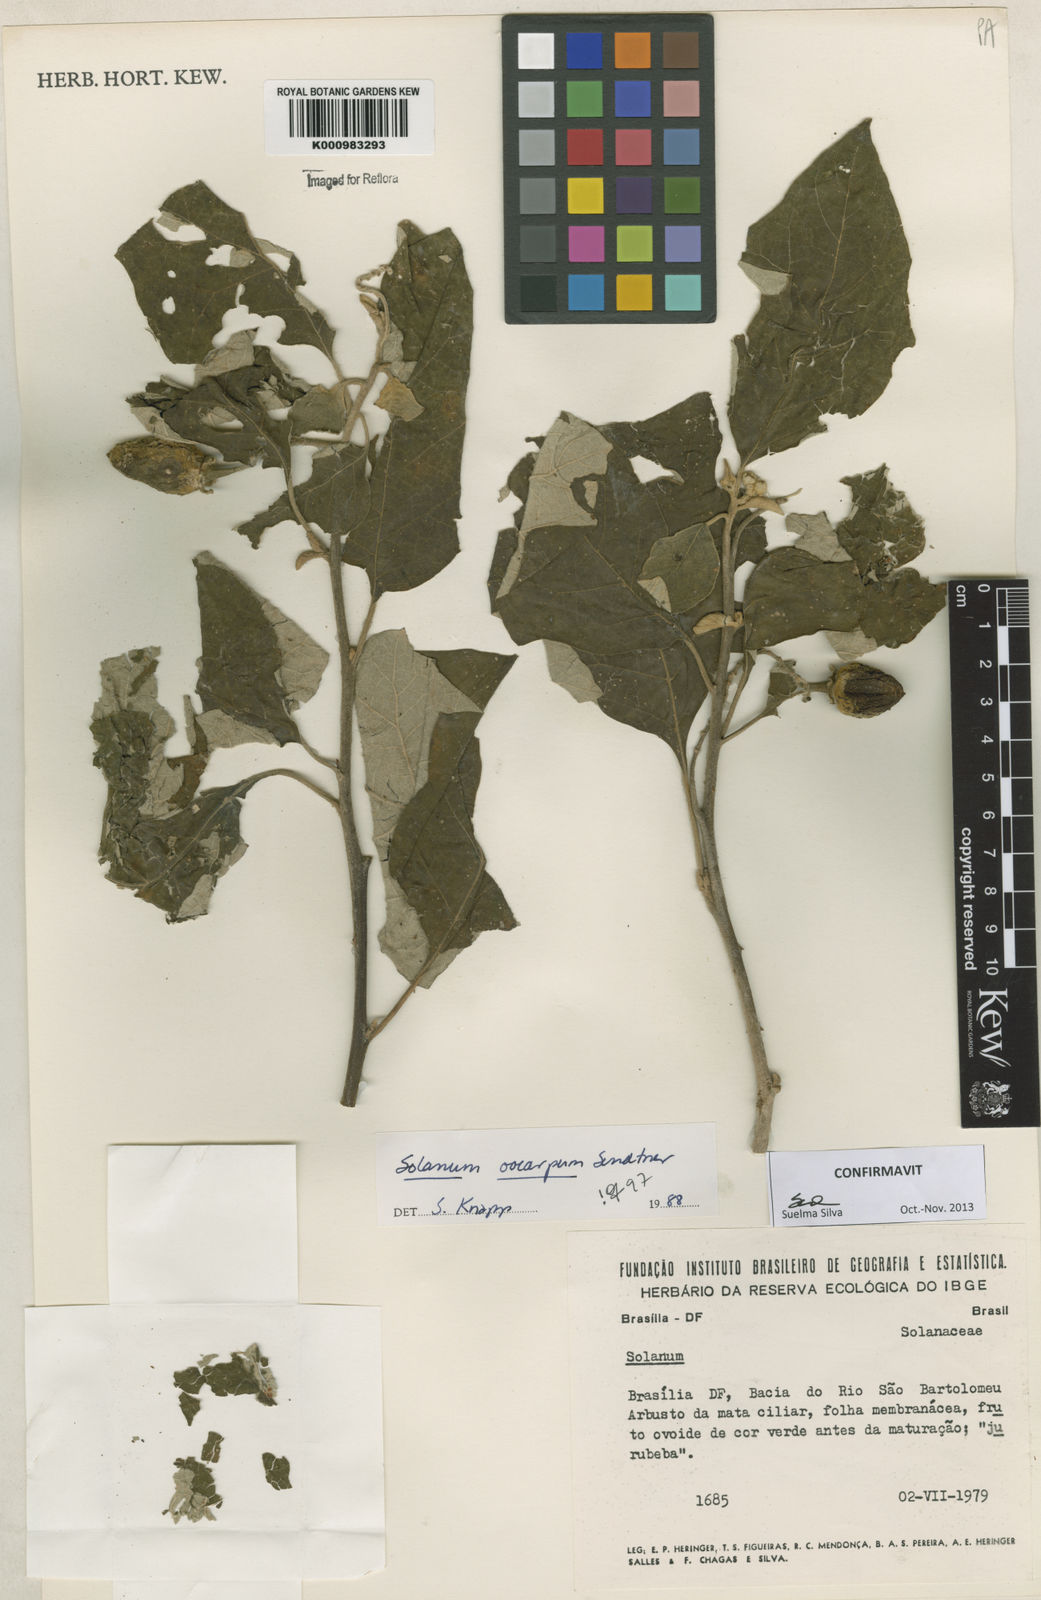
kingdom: Plantae
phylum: Tracheophyta
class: Magnoliopsida
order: Solanales
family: Solanaceae
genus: Solanum
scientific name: Solanum oocarpum
